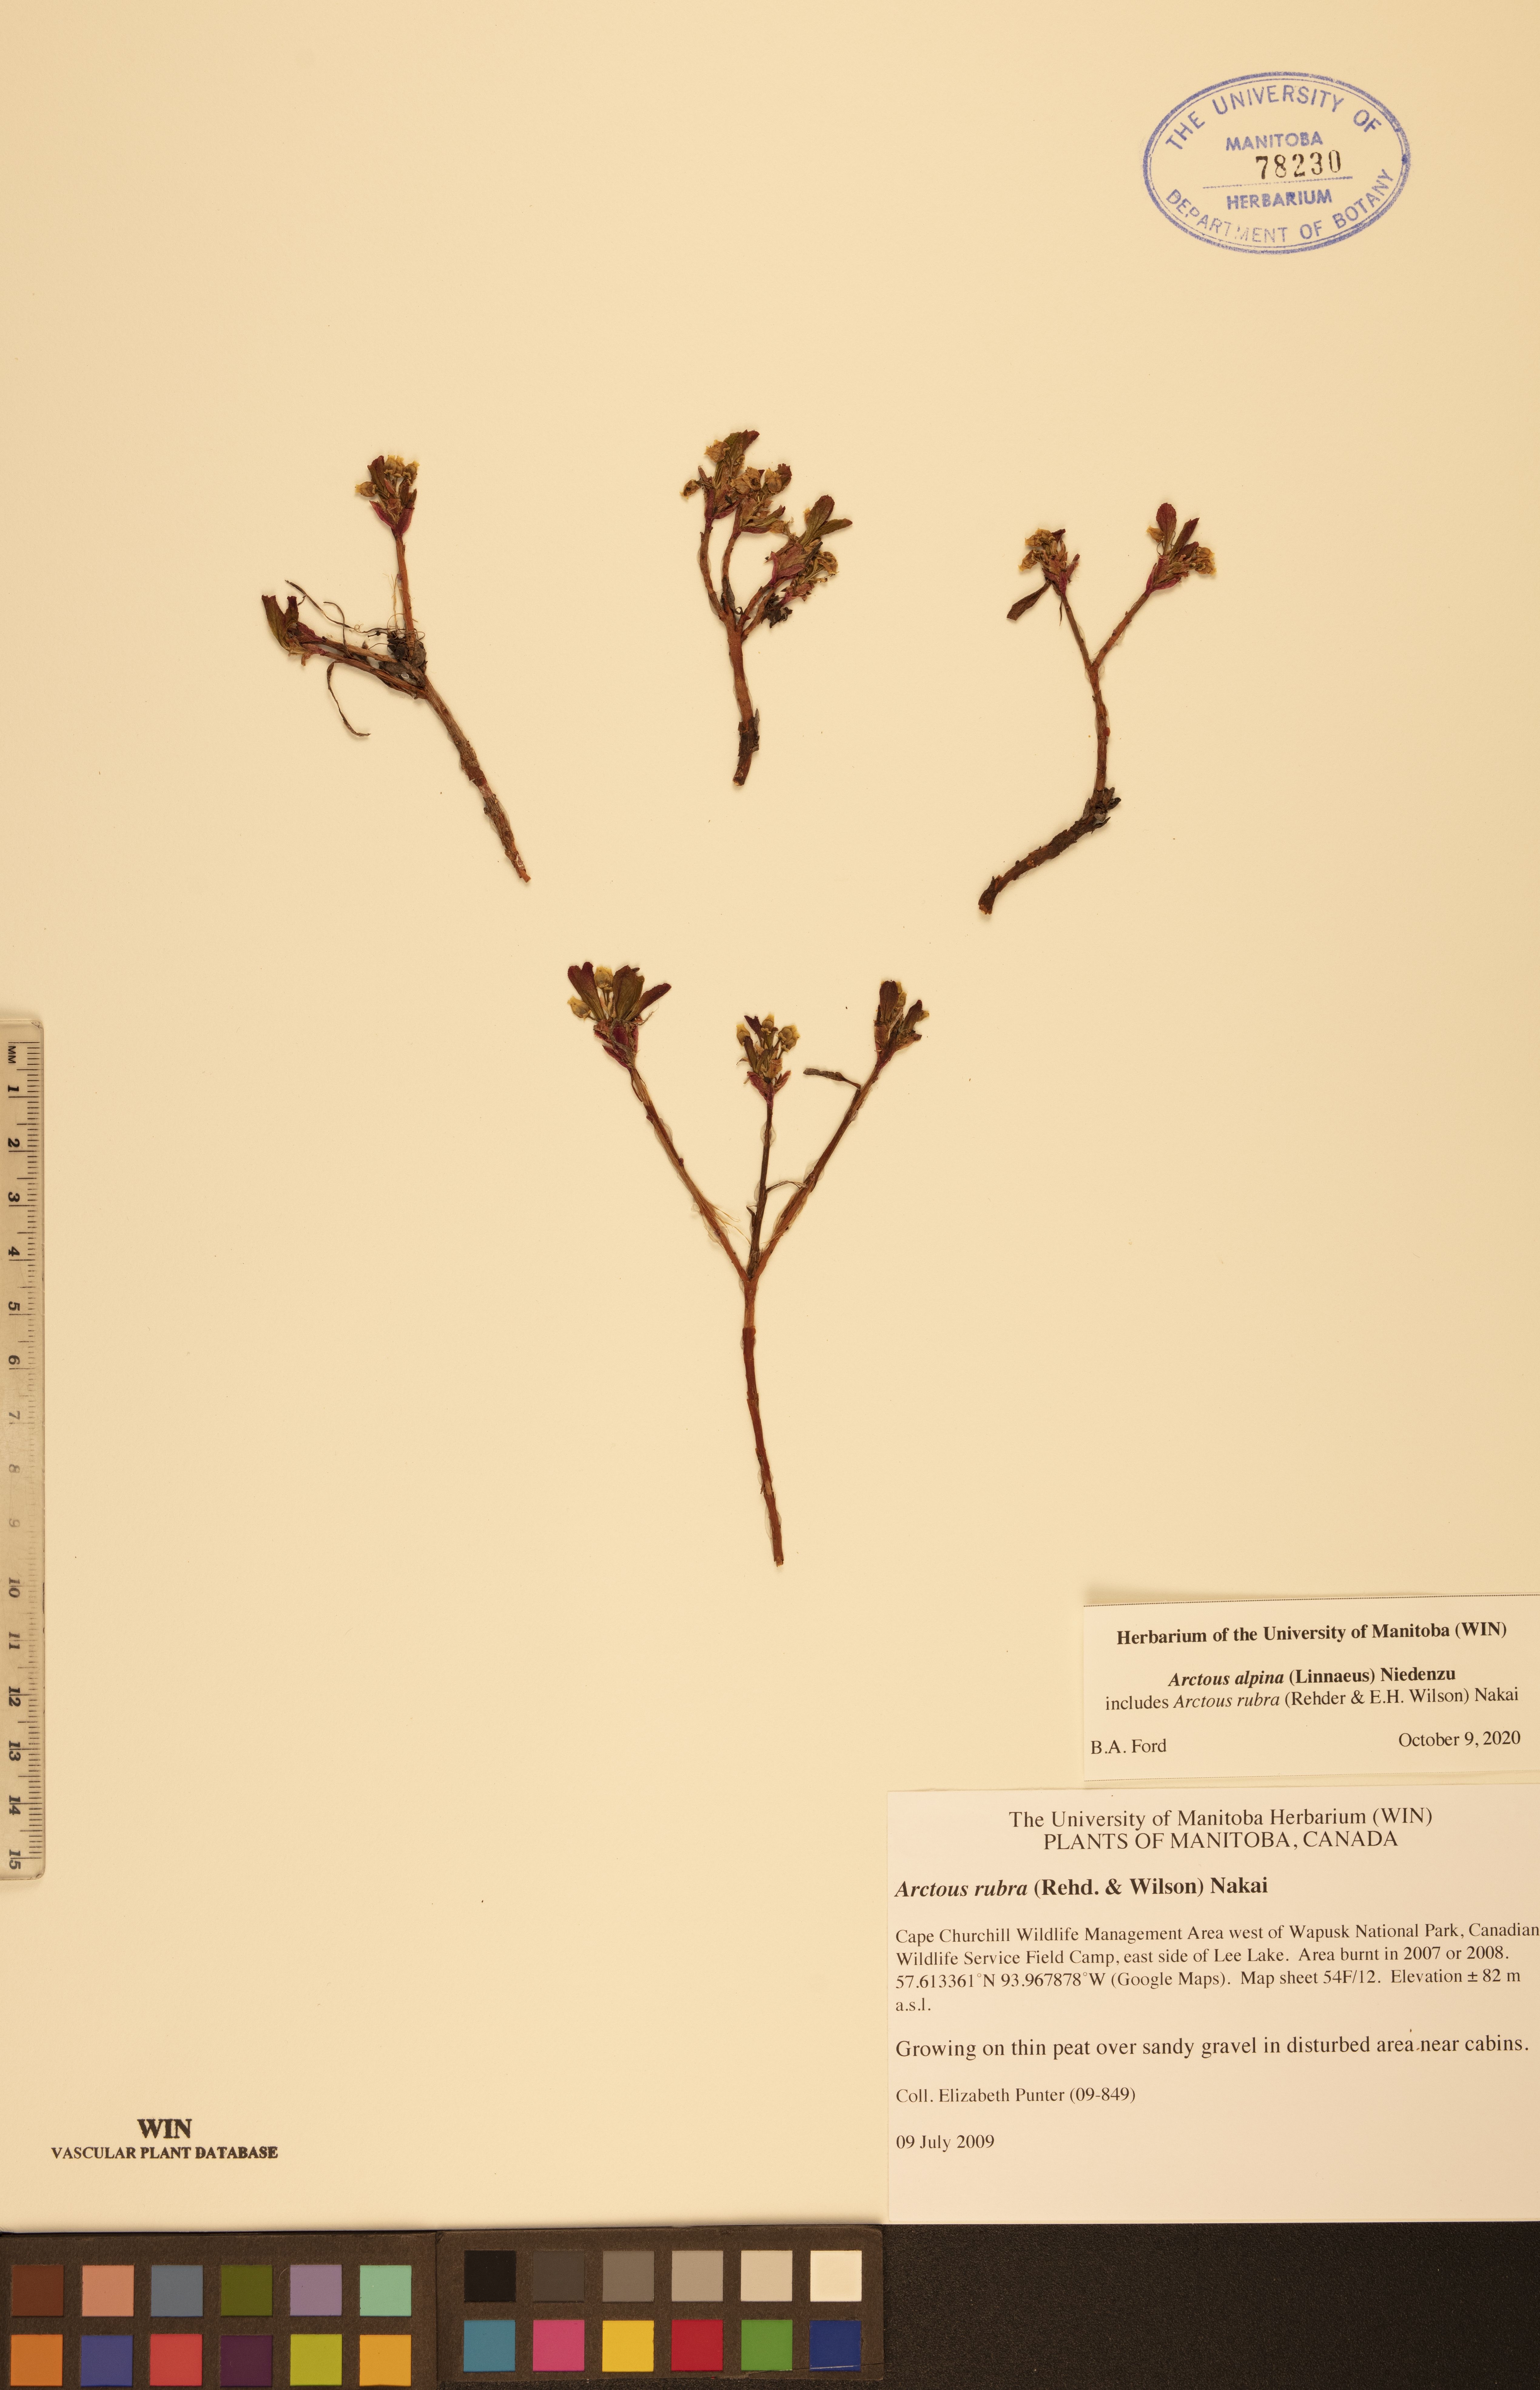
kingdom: Plantae
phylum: Tracheophyta
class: Magnoliopsida
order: Ericales
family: Ericaceae
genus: Arctostaphylos
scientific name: Arctostaphylos alpinus
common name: Alpine bearberry
